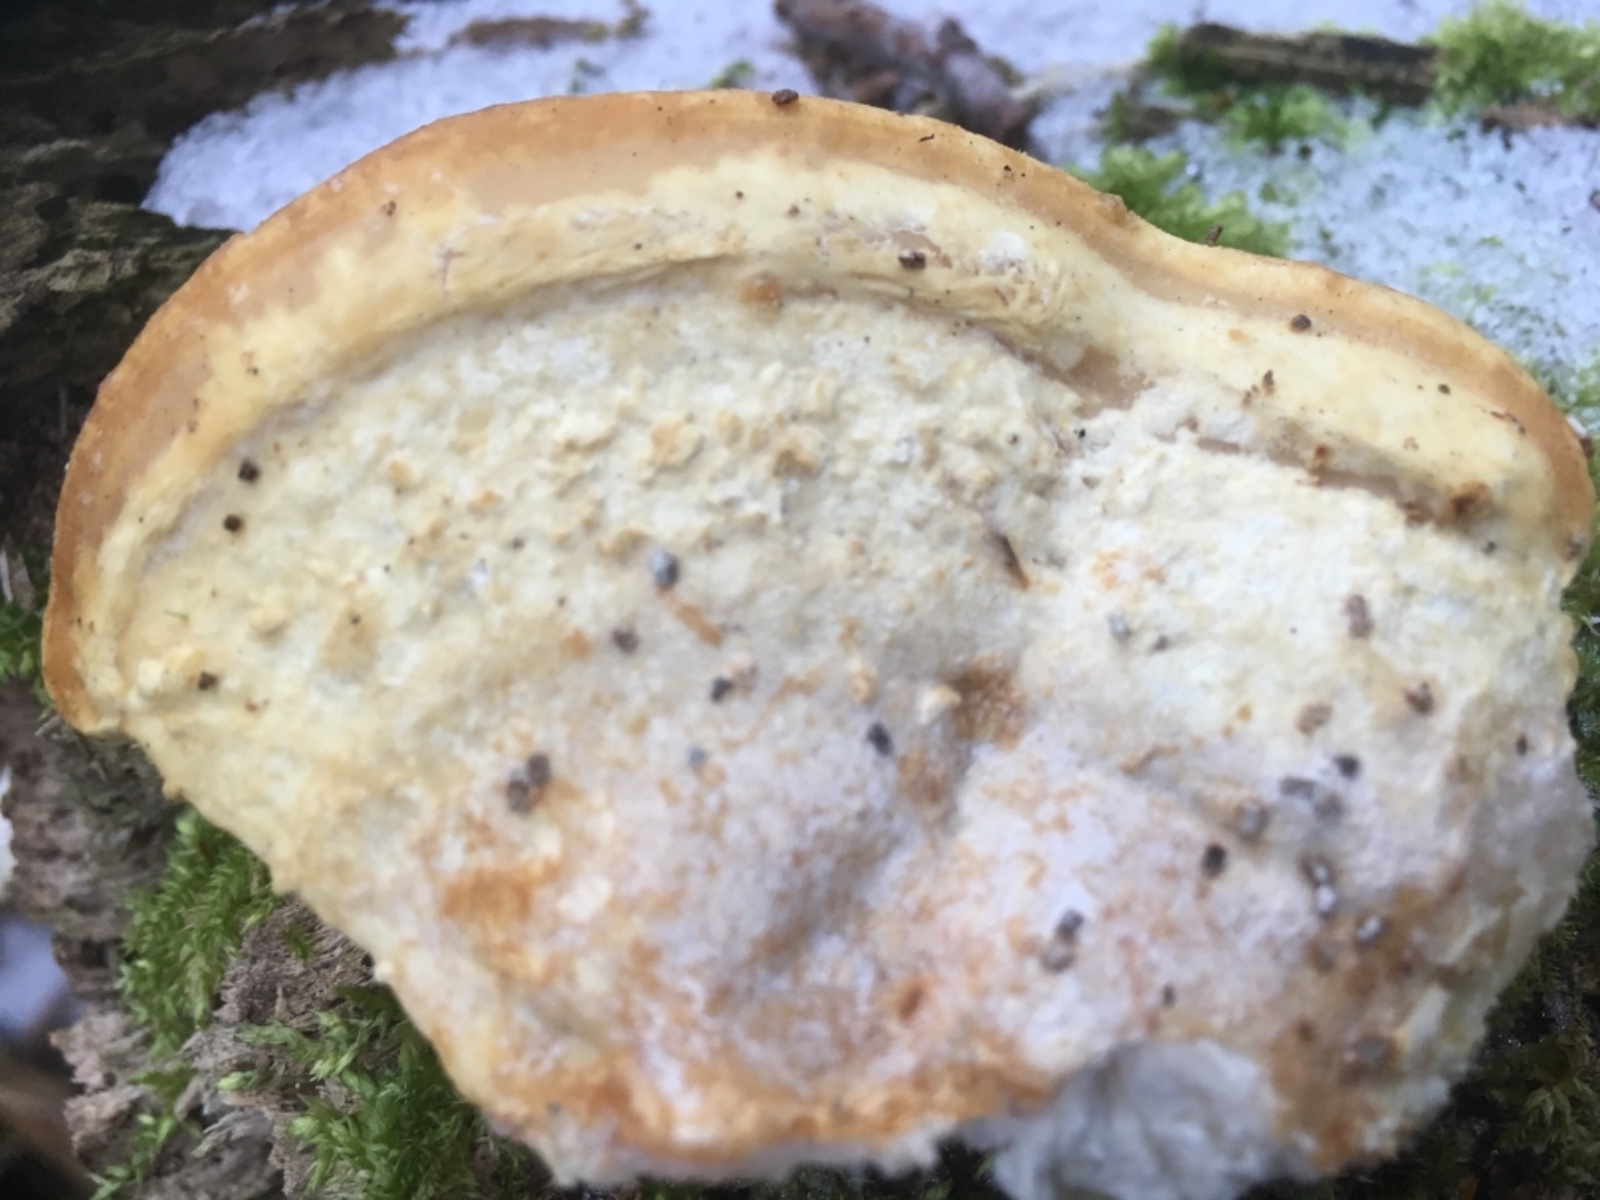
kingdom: Fungi
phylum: Basidiomycota
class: Agaricomycetes
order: Polyporales
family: Dacryobolaceae
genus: Postia
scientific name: Postia tephroleuca
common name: grålig kødporesvamp
